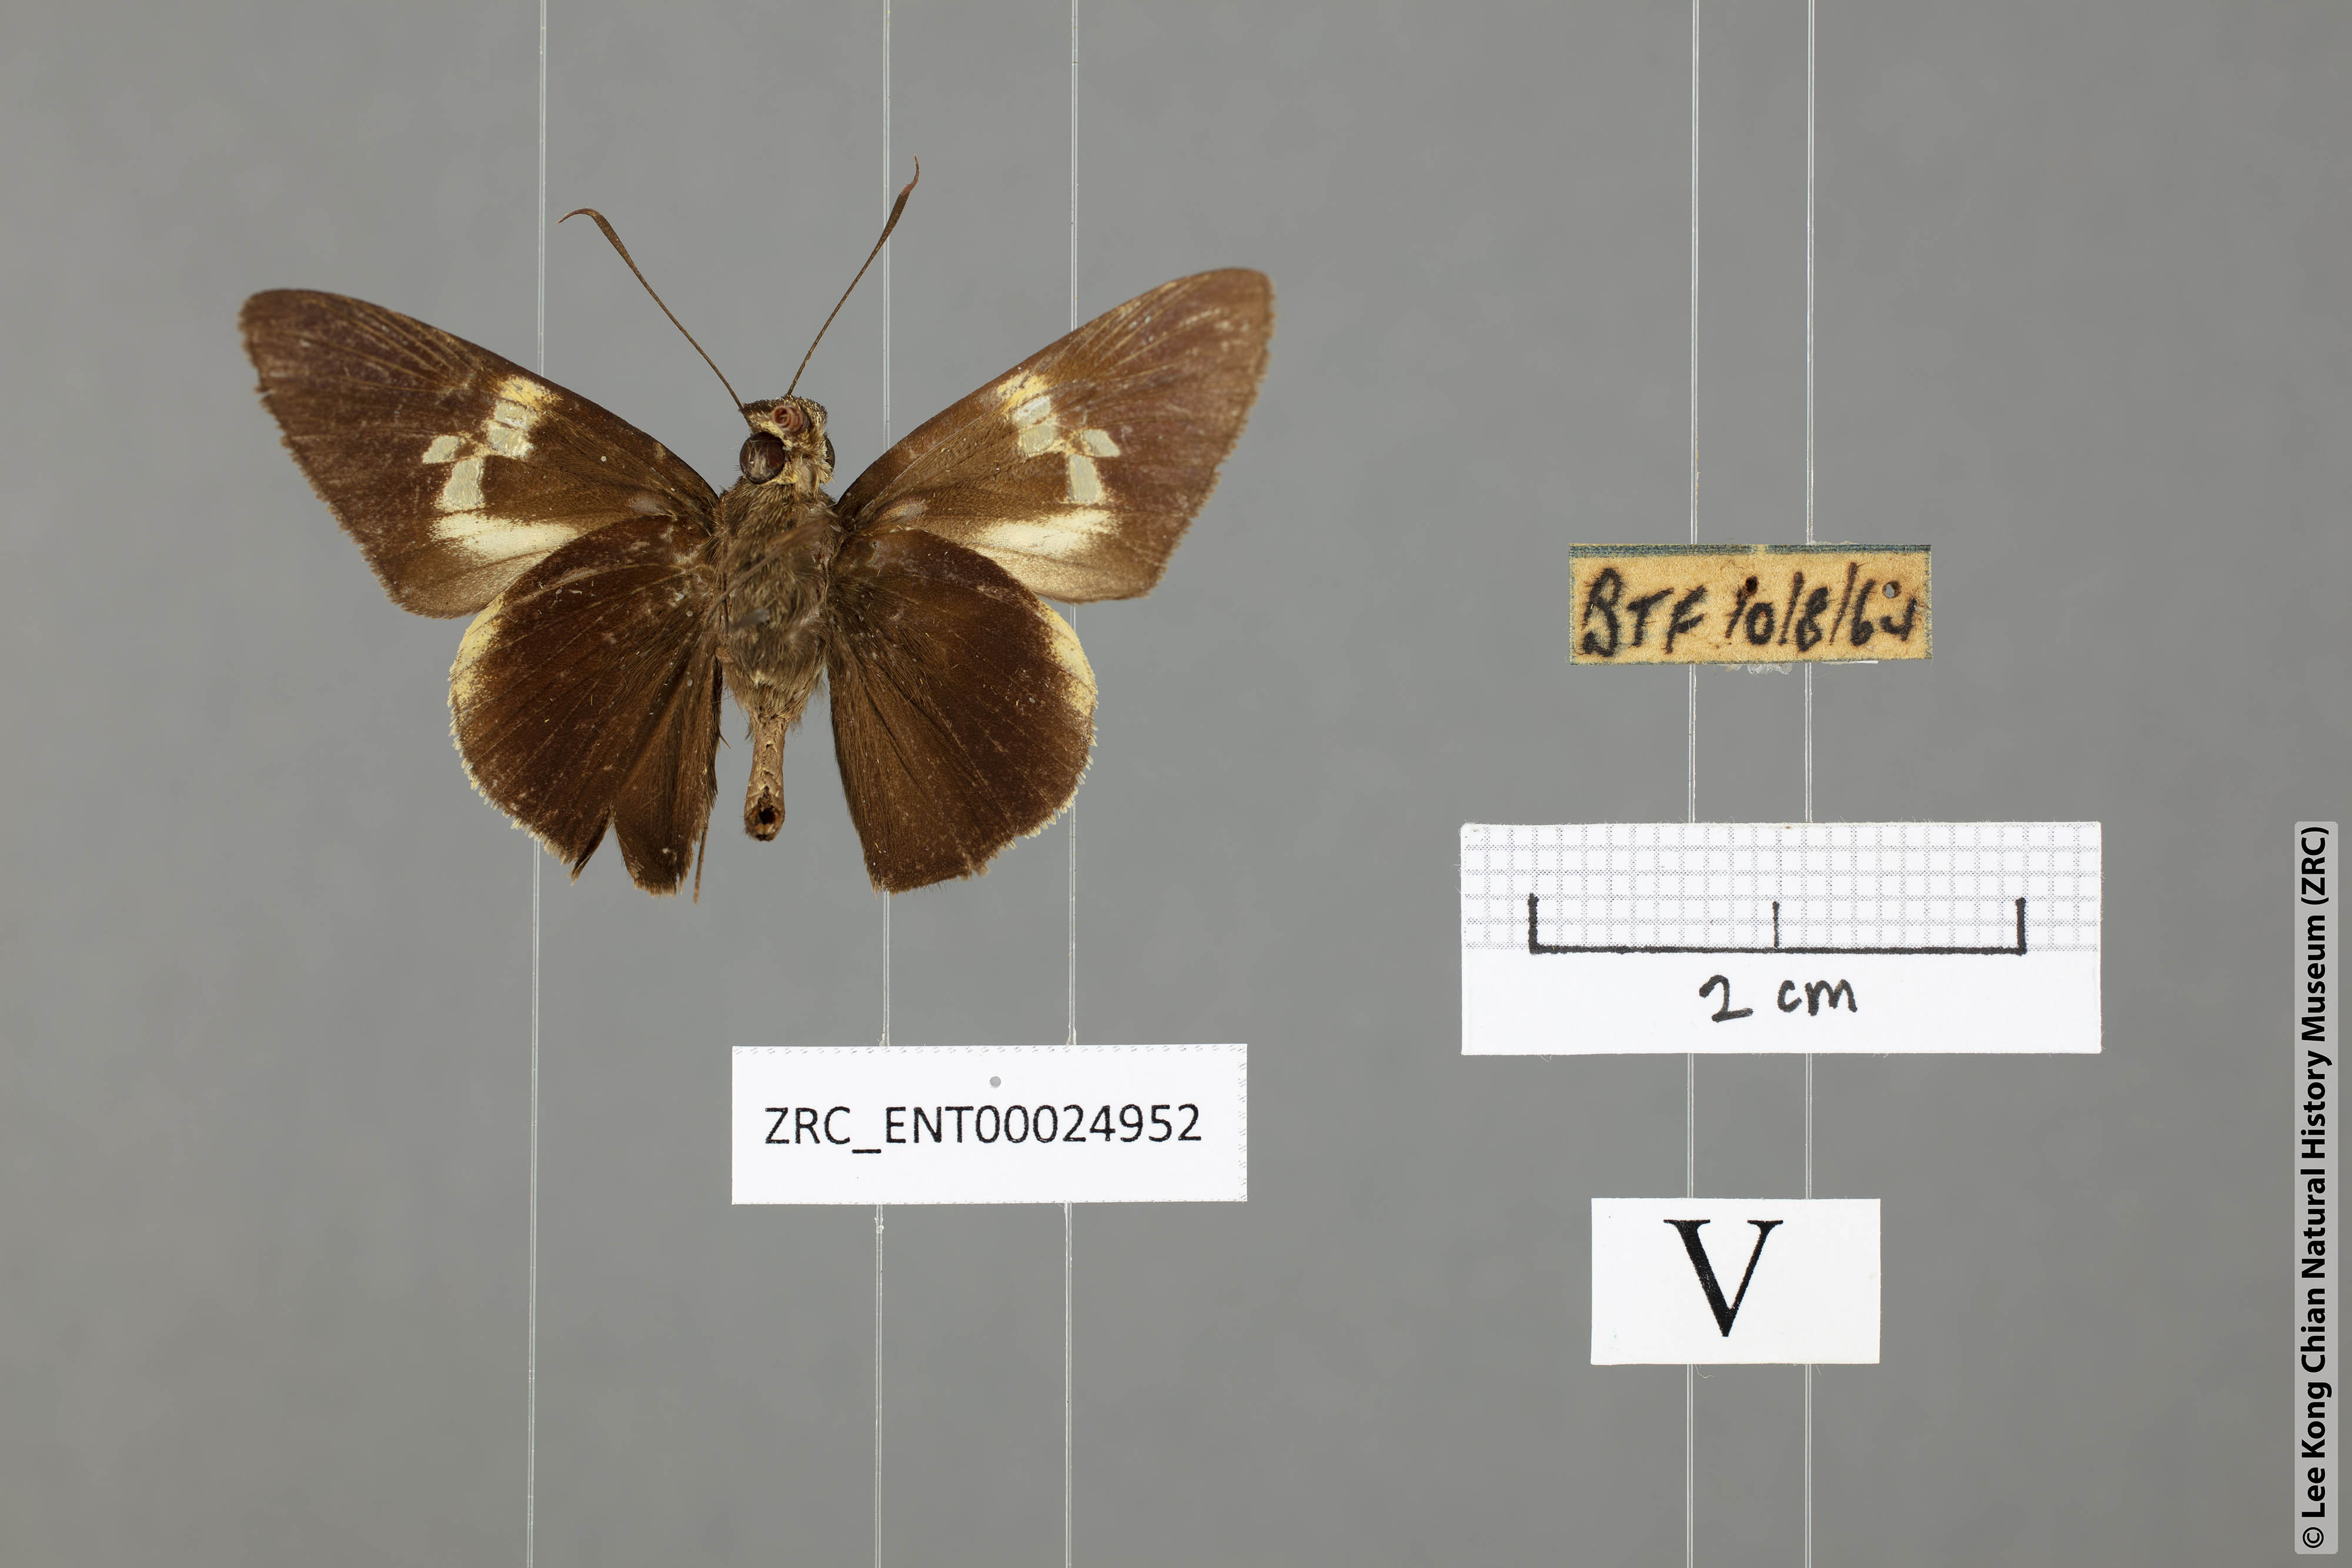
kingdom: Animalia
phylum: Arthropoda
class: Insecta
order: Lepidoptera
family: Hesperiidae
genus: Lotongus
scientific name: Lotongus calathus
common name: White-tipped palmer
